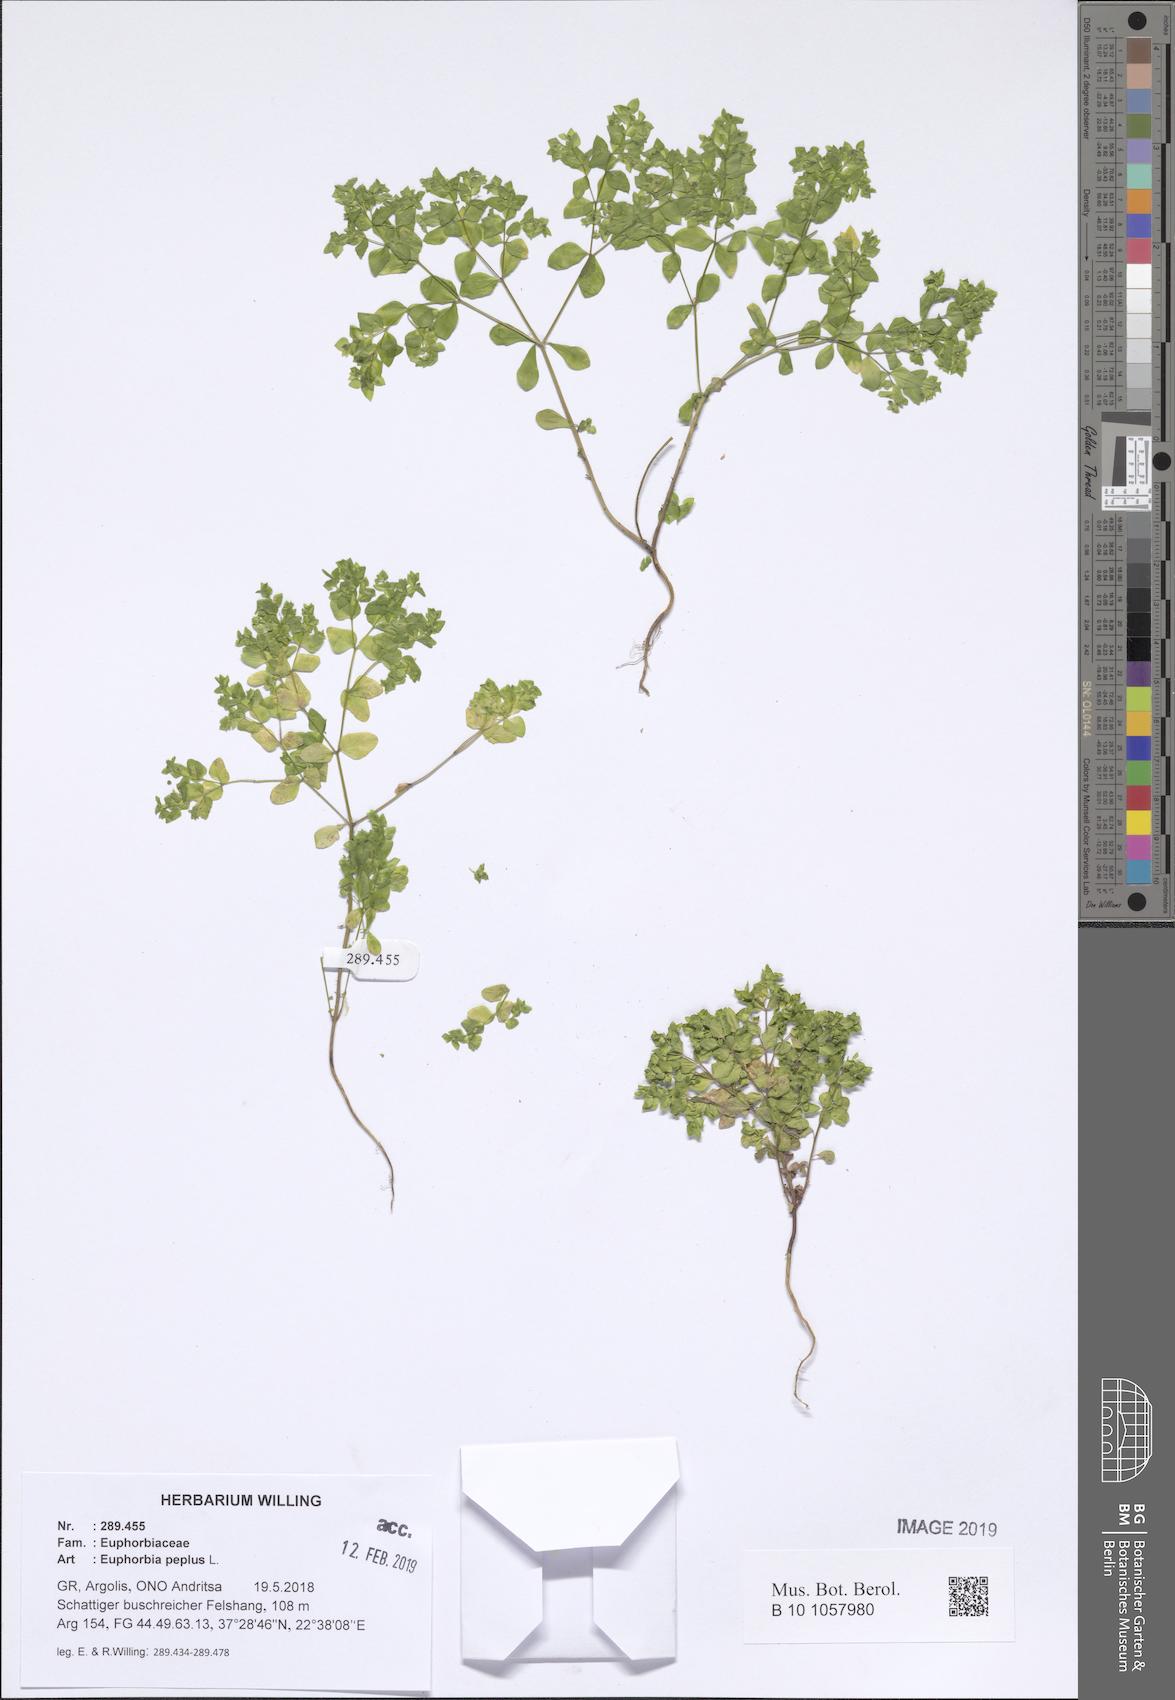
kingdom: Plantae
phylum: Tracheophyta
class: Magnoliopsida
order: Malpighiales
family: Euphorbiaceae
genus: Euphorbia
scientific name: Euphorbia peplus
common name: Petty spurge
